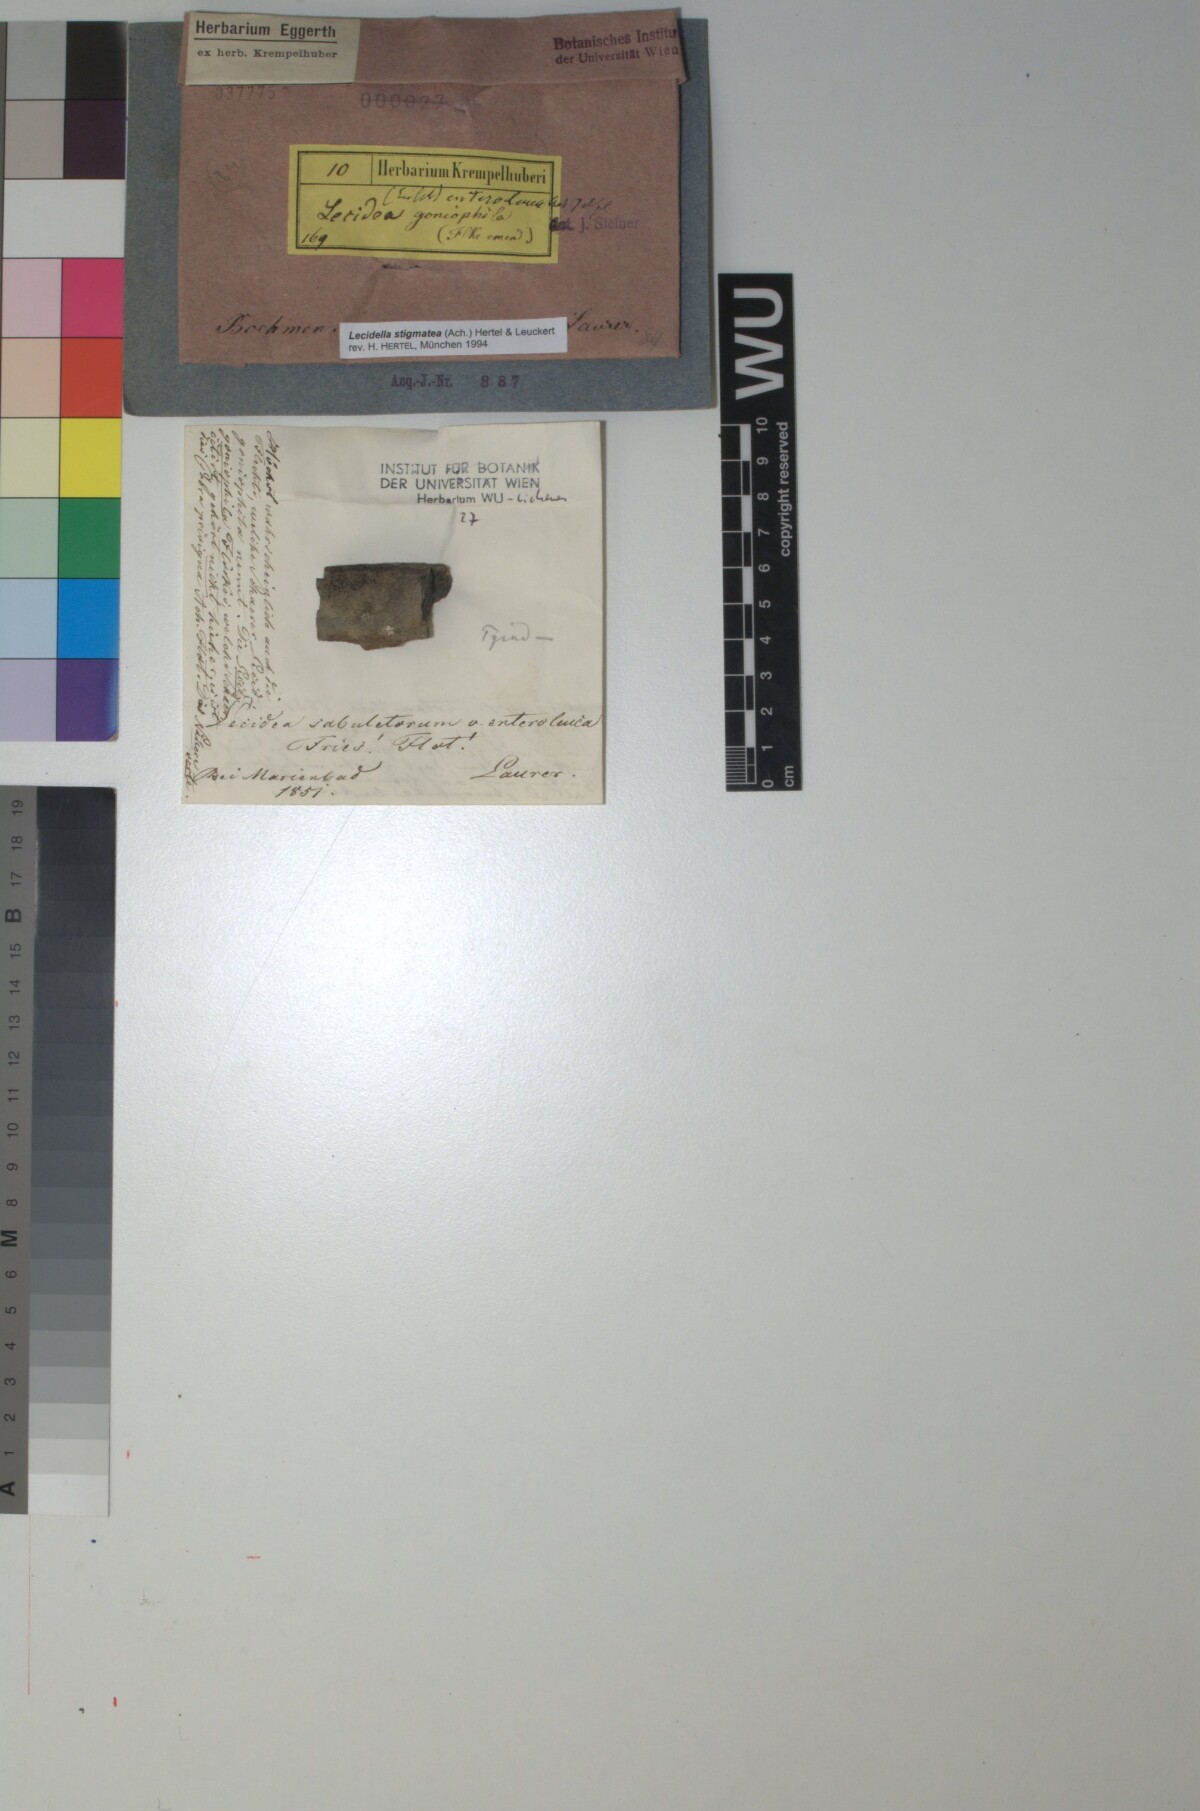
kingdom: Fungi
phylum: Ascomycota
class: Lecanoromycetes
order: Lecanorales
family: Lecanoraceae
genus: Lecidella
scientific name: Lecidella stigmatea
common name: Limestone disc lichen
